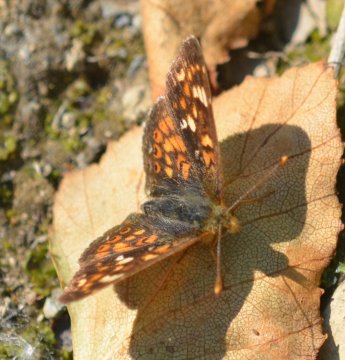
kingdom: Animalia
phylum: Arthropoda
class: Insecta
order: Lepidoptera
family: Nymphalidae
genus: Phyciodes
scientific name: Phyciodes tharos
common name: Field Crescent
